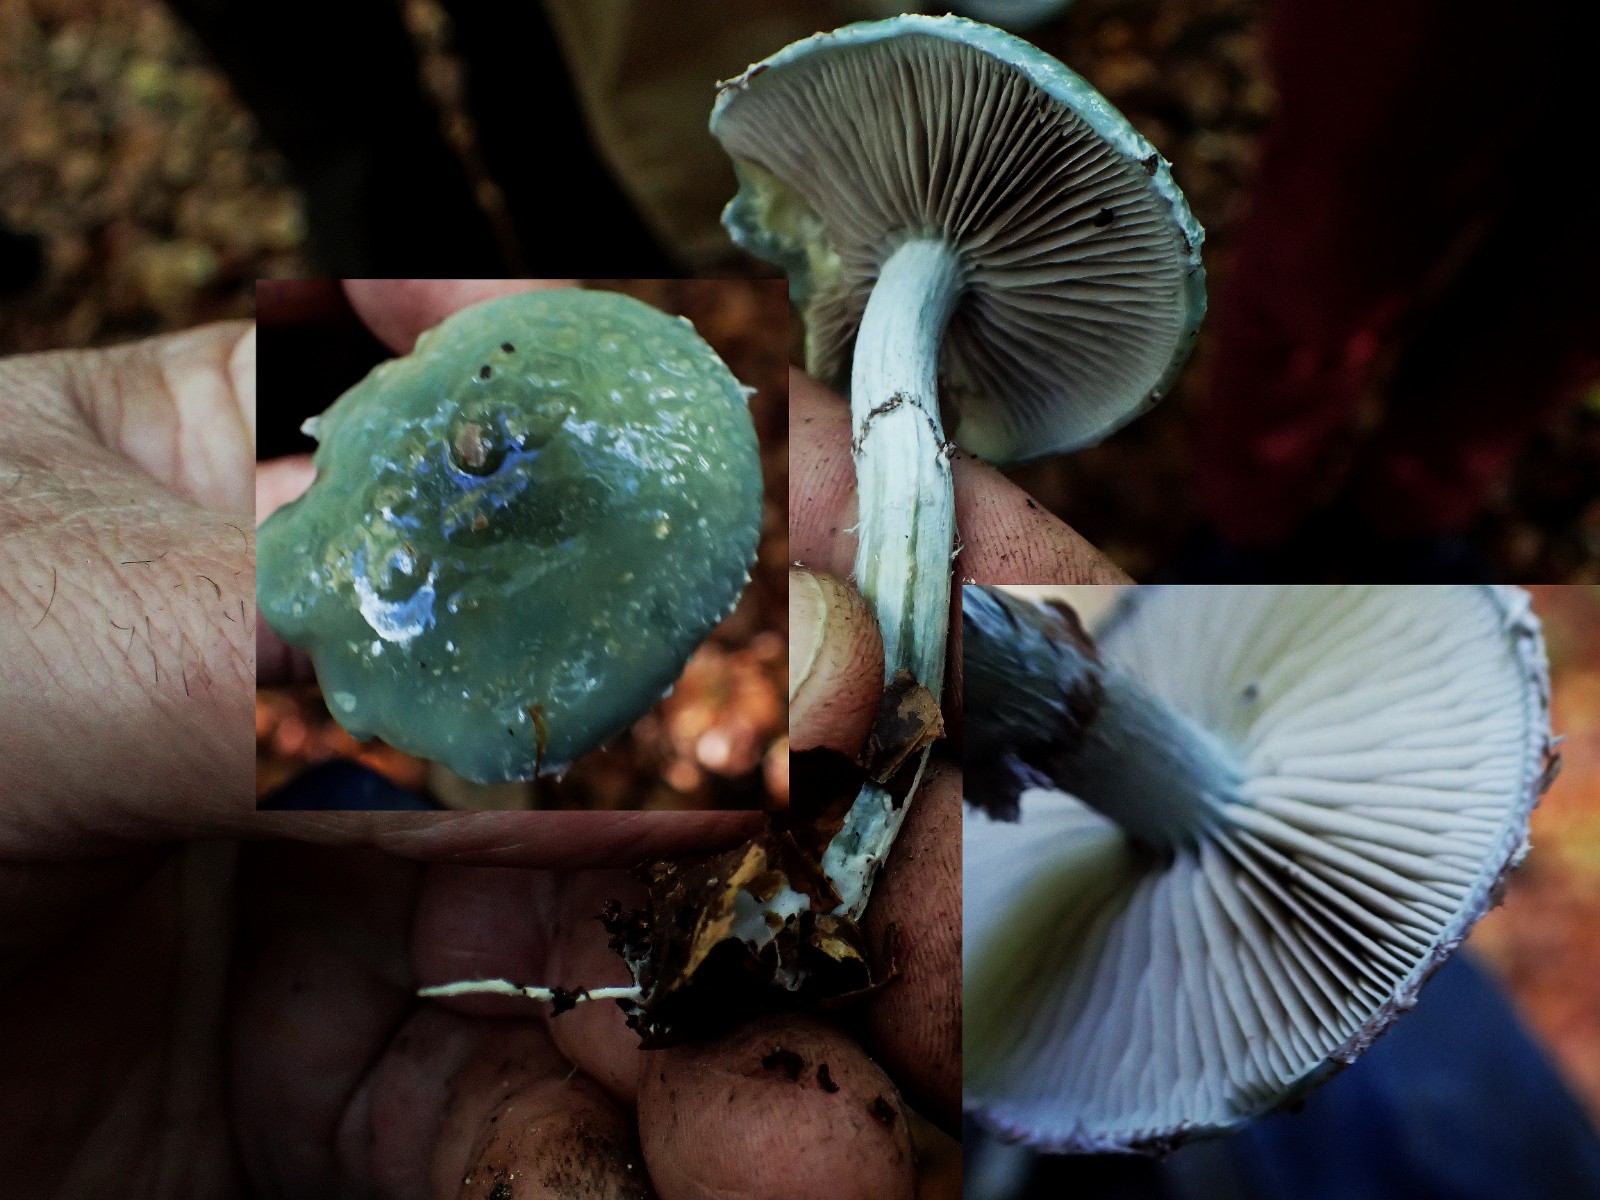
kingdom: Fungi
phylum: Basidiomycota
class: Agaricomycetes
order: Agaricales
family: Strophariaceae
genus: Stropharia
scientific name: Stropharia aeruginosa
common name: spanskgrøn bredblad
